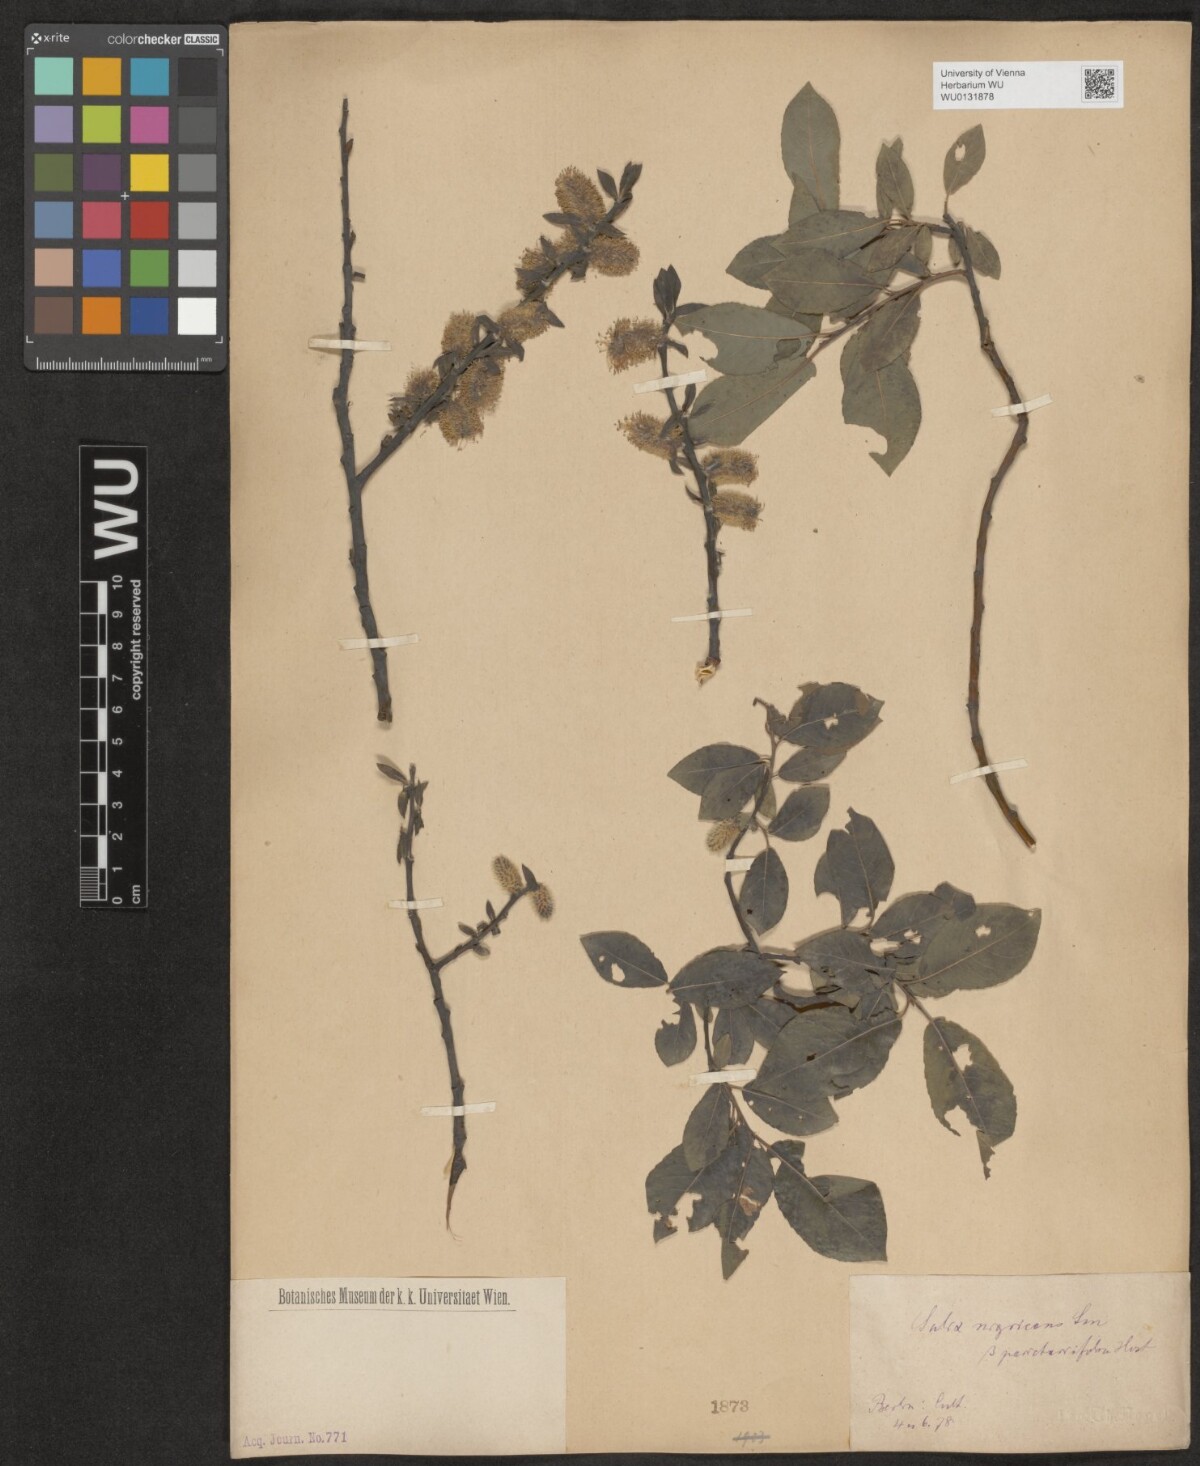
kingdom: Plantae
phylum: Tracheophyta
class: Magnoliopsida
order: Malpighiales
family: Salicaceae
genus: Salix
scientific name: Salix myrsinifolia
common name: Dark-leaved willow
